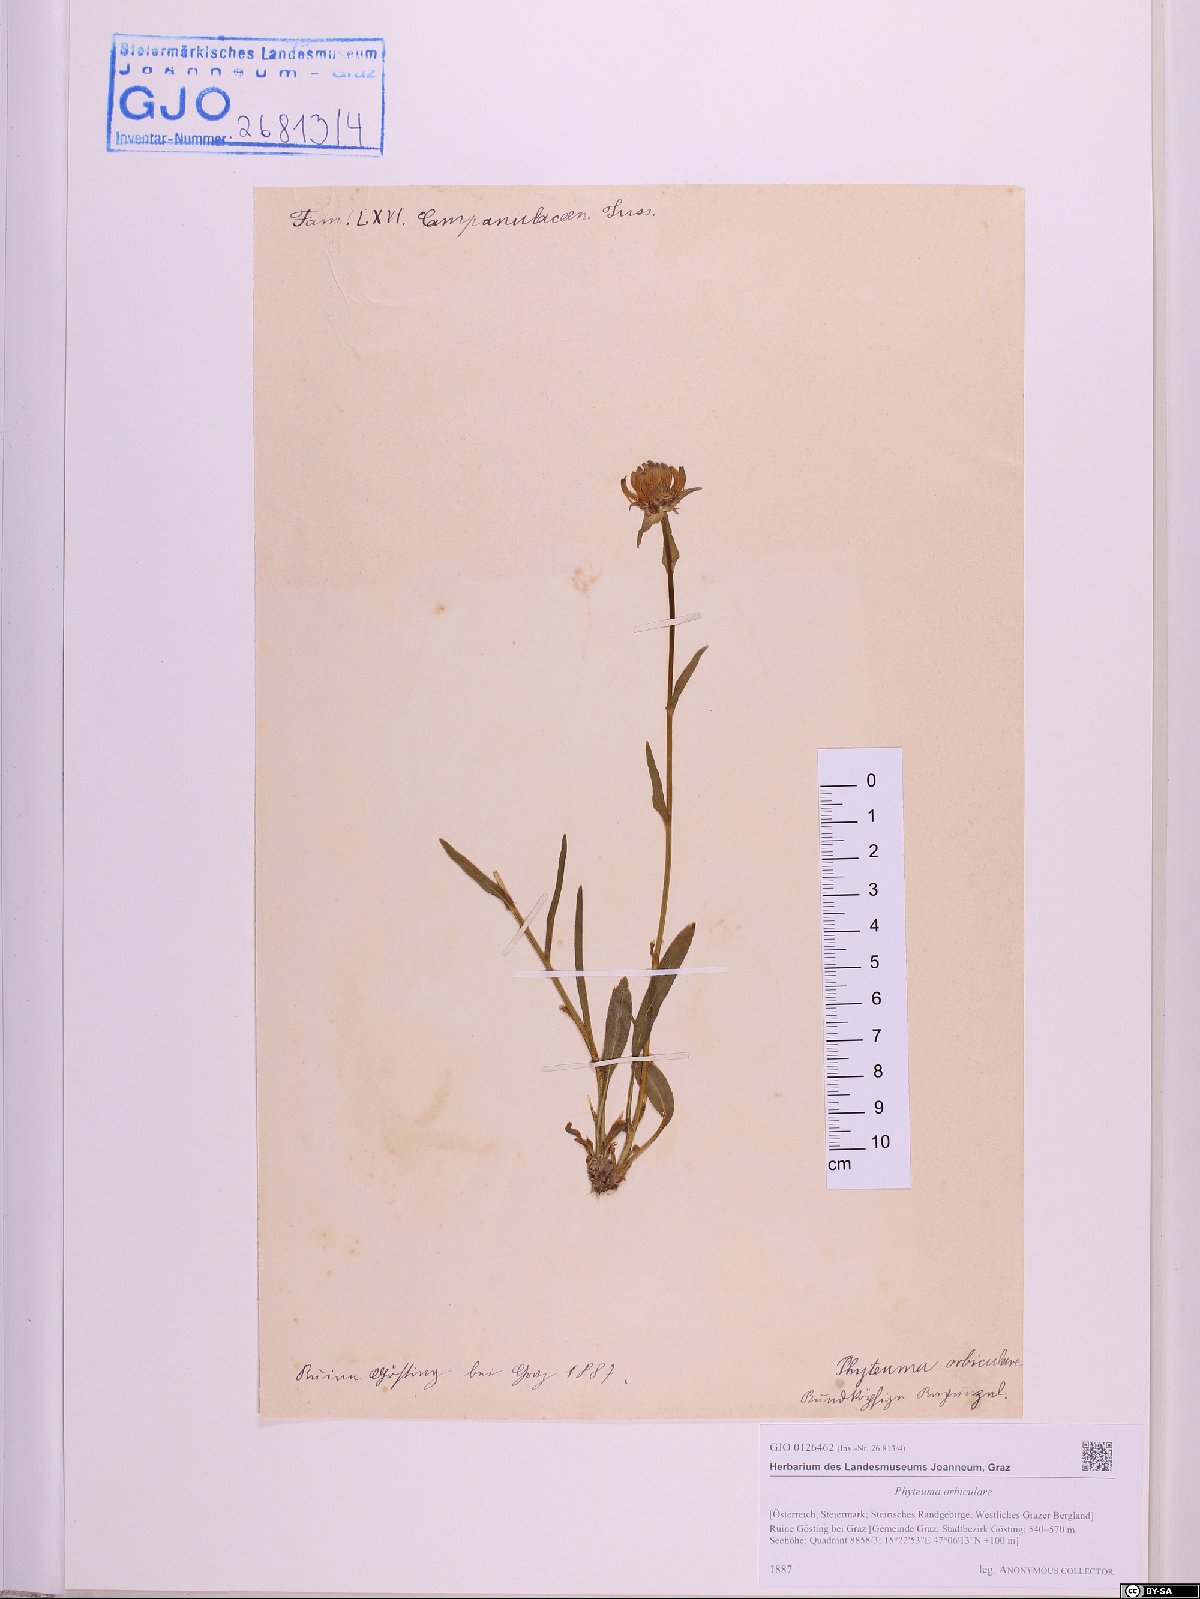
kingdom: Plantae
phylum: Tracheophyta
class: Magnoliopsida
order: Asterales
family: Campanulaceae
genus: Phyteuma
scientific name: Phyteuma orbiculare
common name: Round-headed rampion
